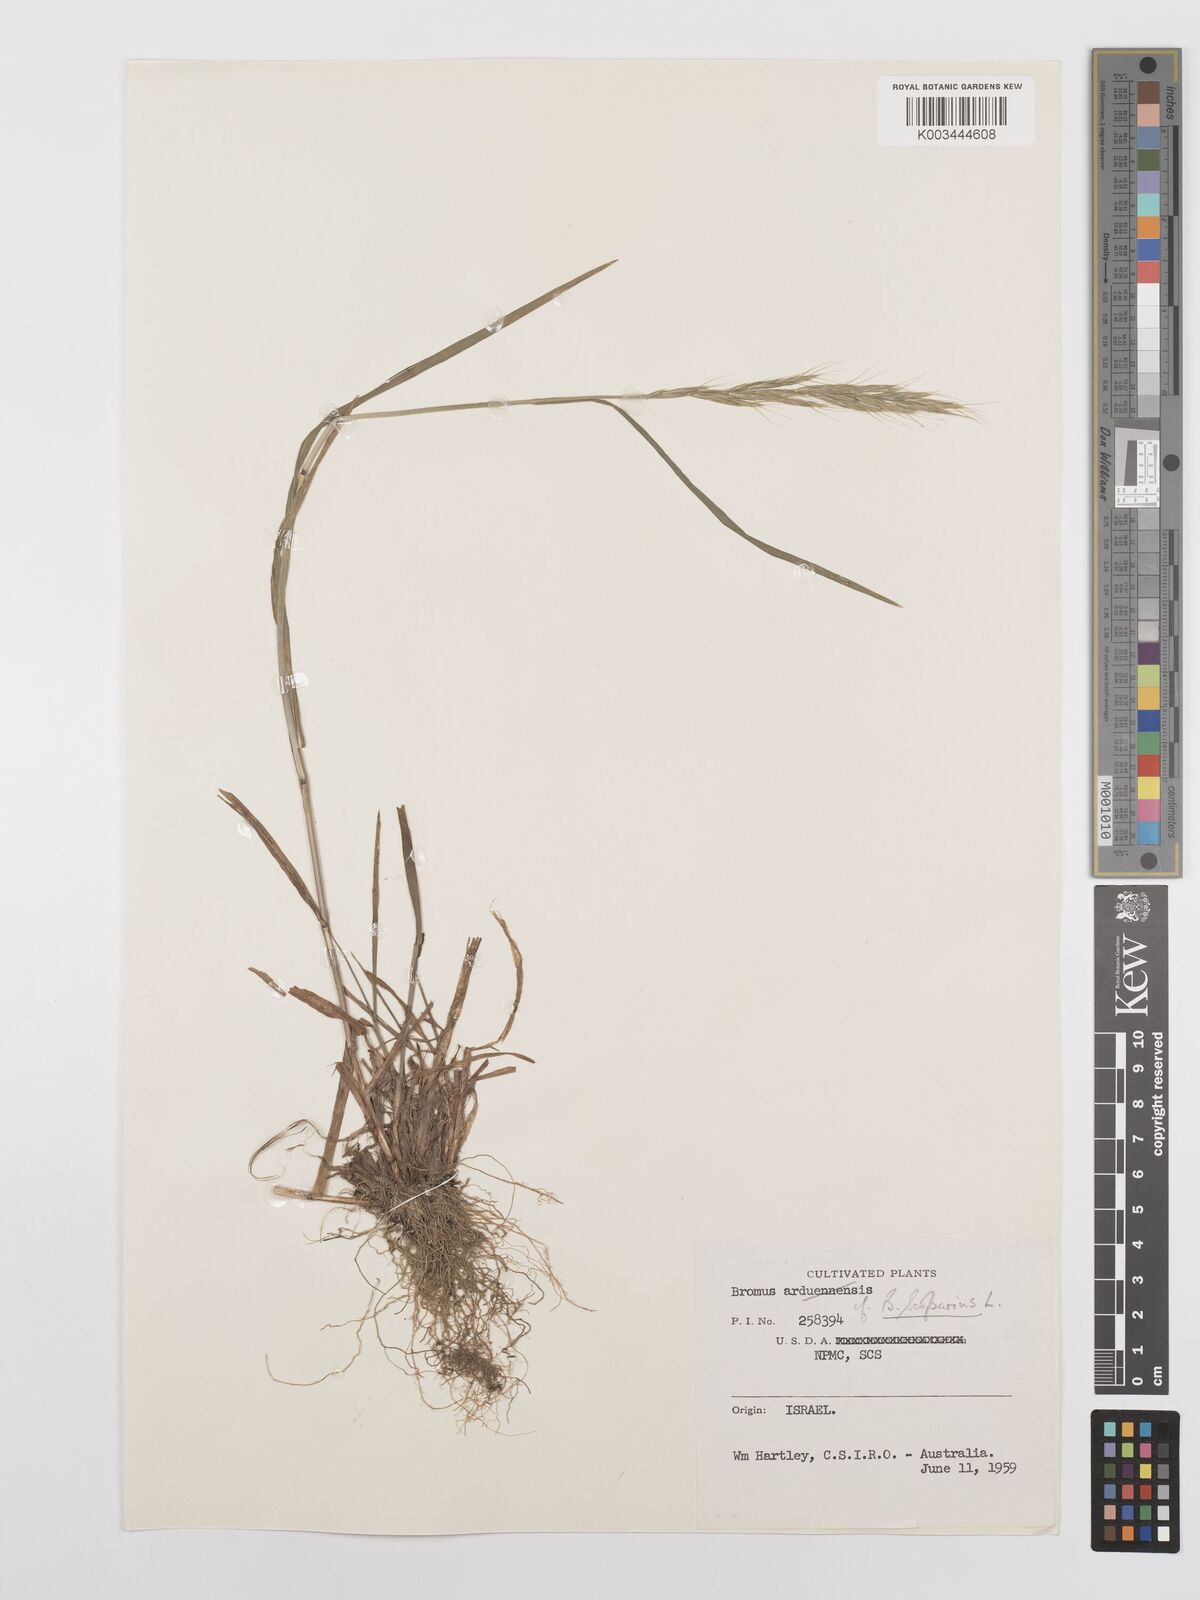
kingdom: Plantae
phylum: Tracheophyta
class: Liliopsida
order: Poales
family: Poaceae
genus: Bromus
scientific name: Bromus scoparius
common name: Broom brome
